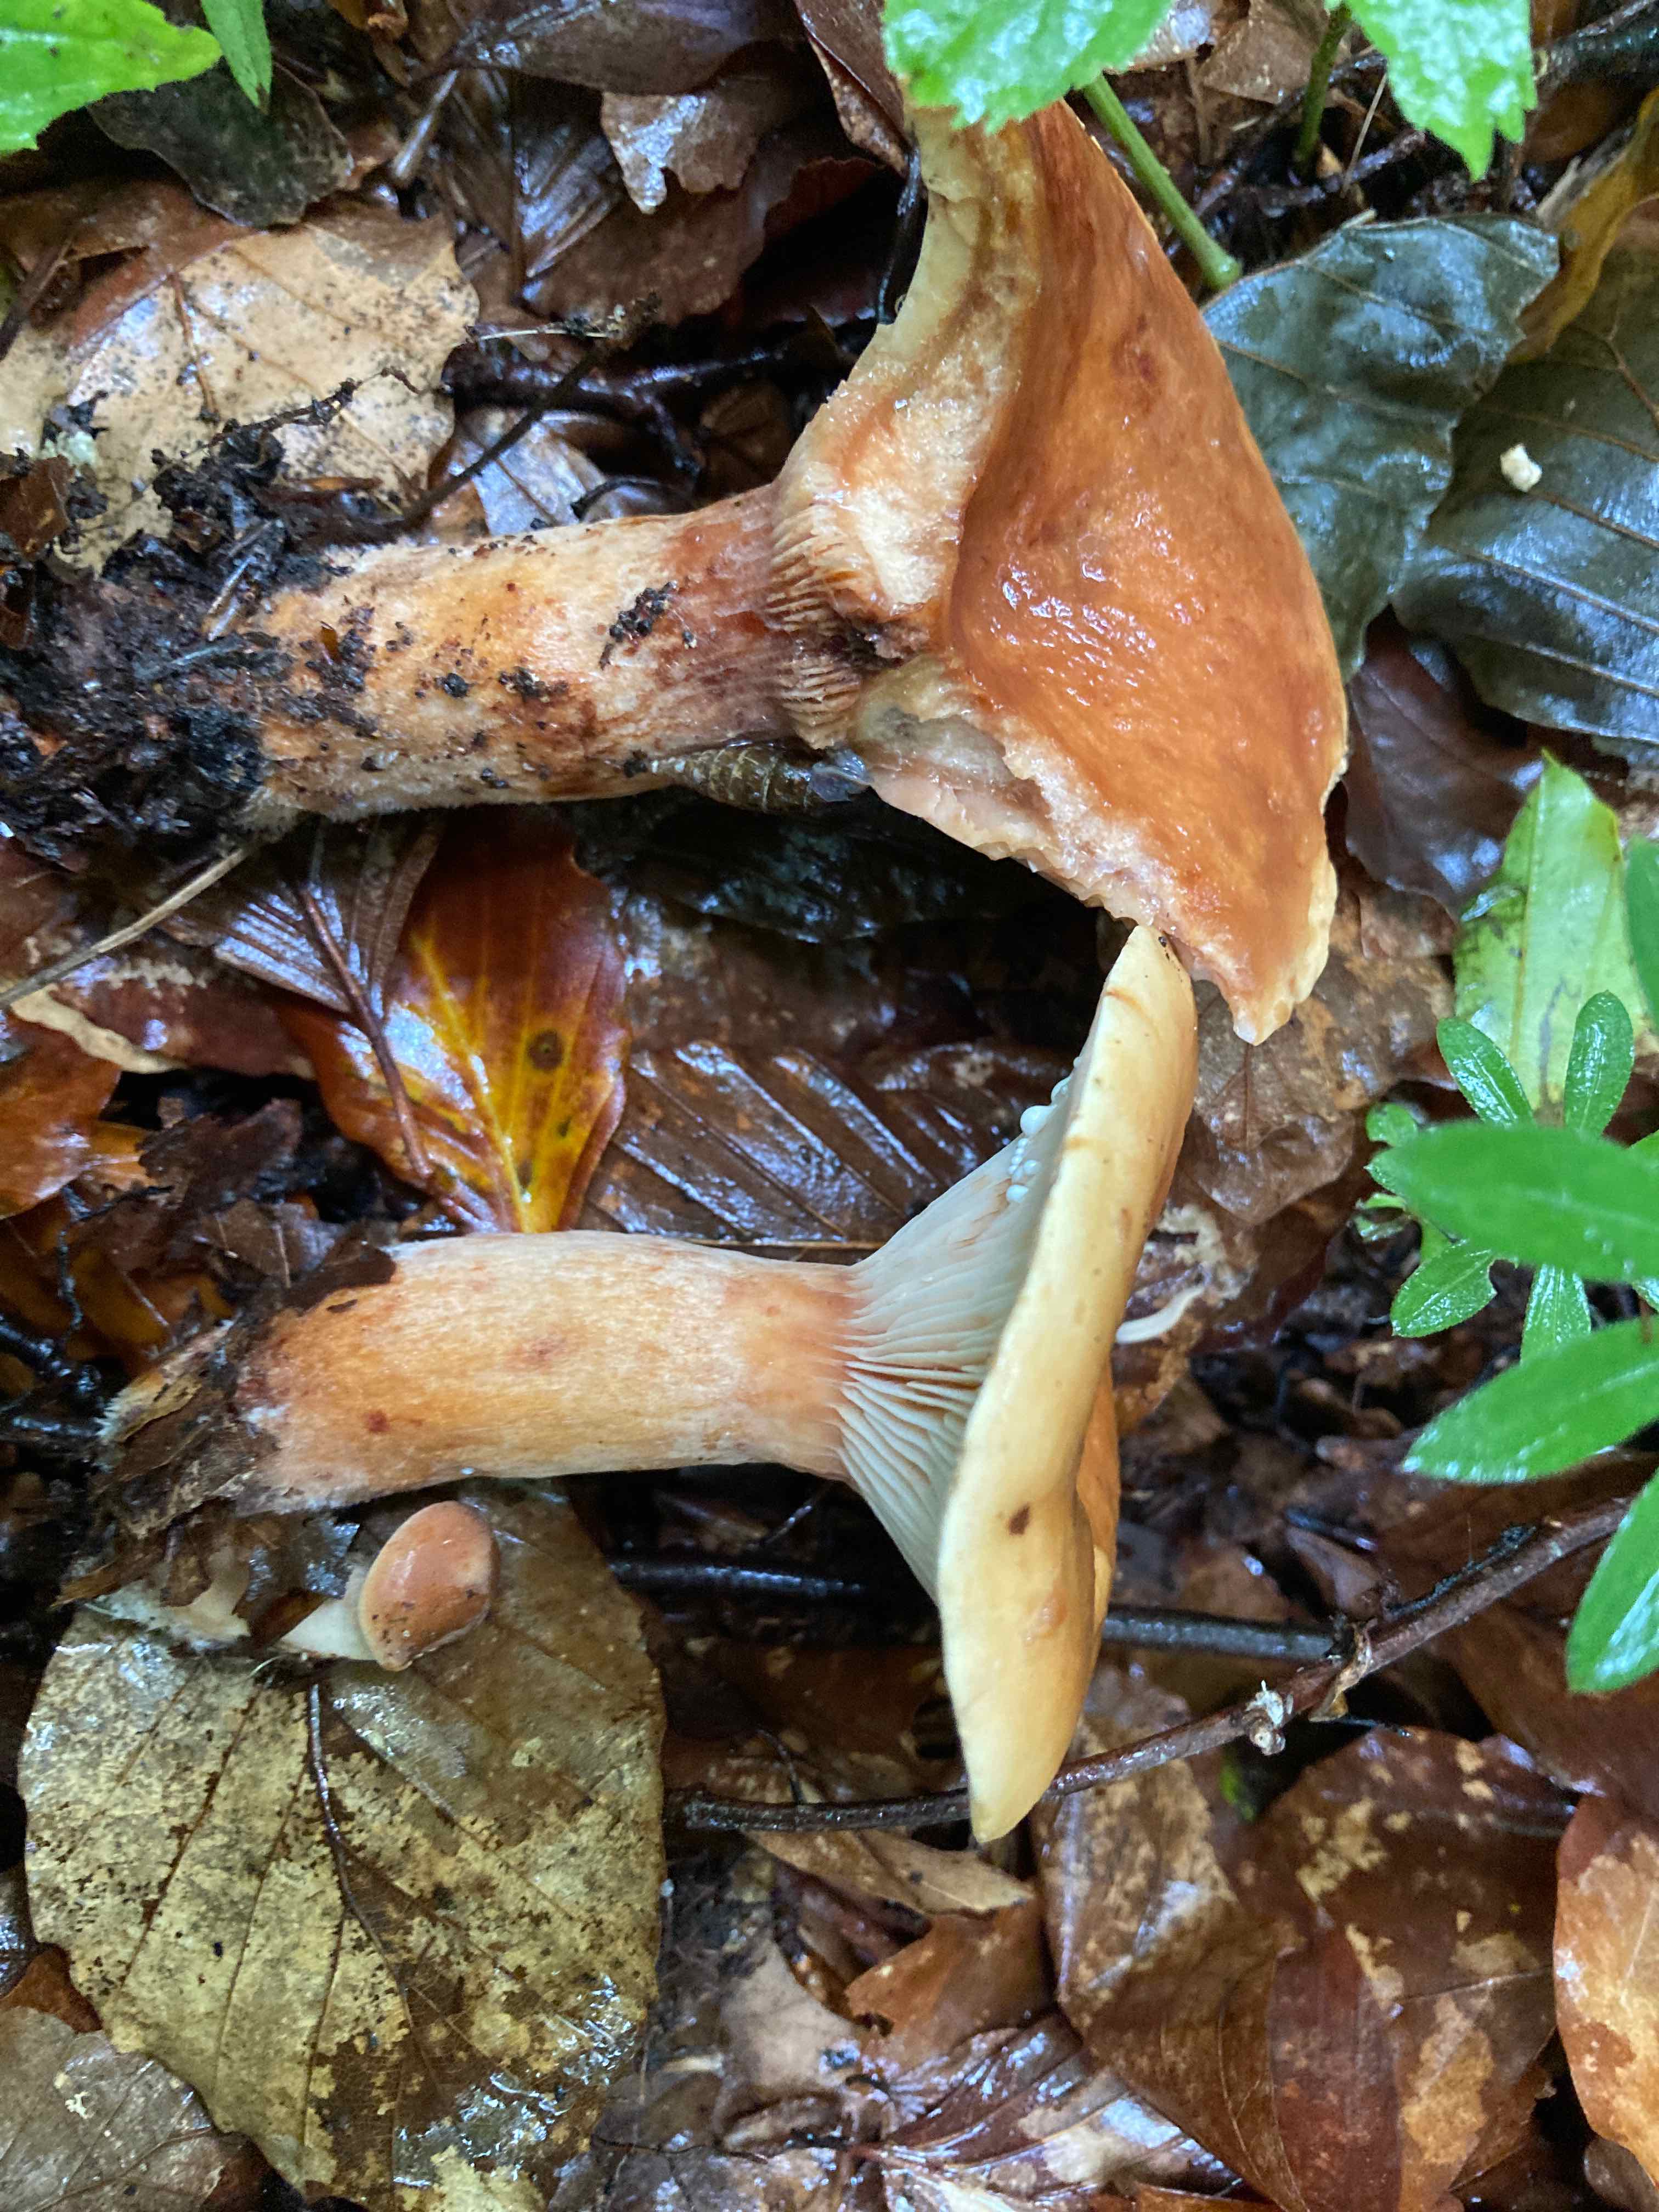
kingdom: Fungi
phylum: Basidiomycota
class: Agaricomycetes
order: Russulales
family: Russulaceae
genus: Lactarius
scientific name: Lactarius rubrocinctus
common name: halsbånd-mælkehat
